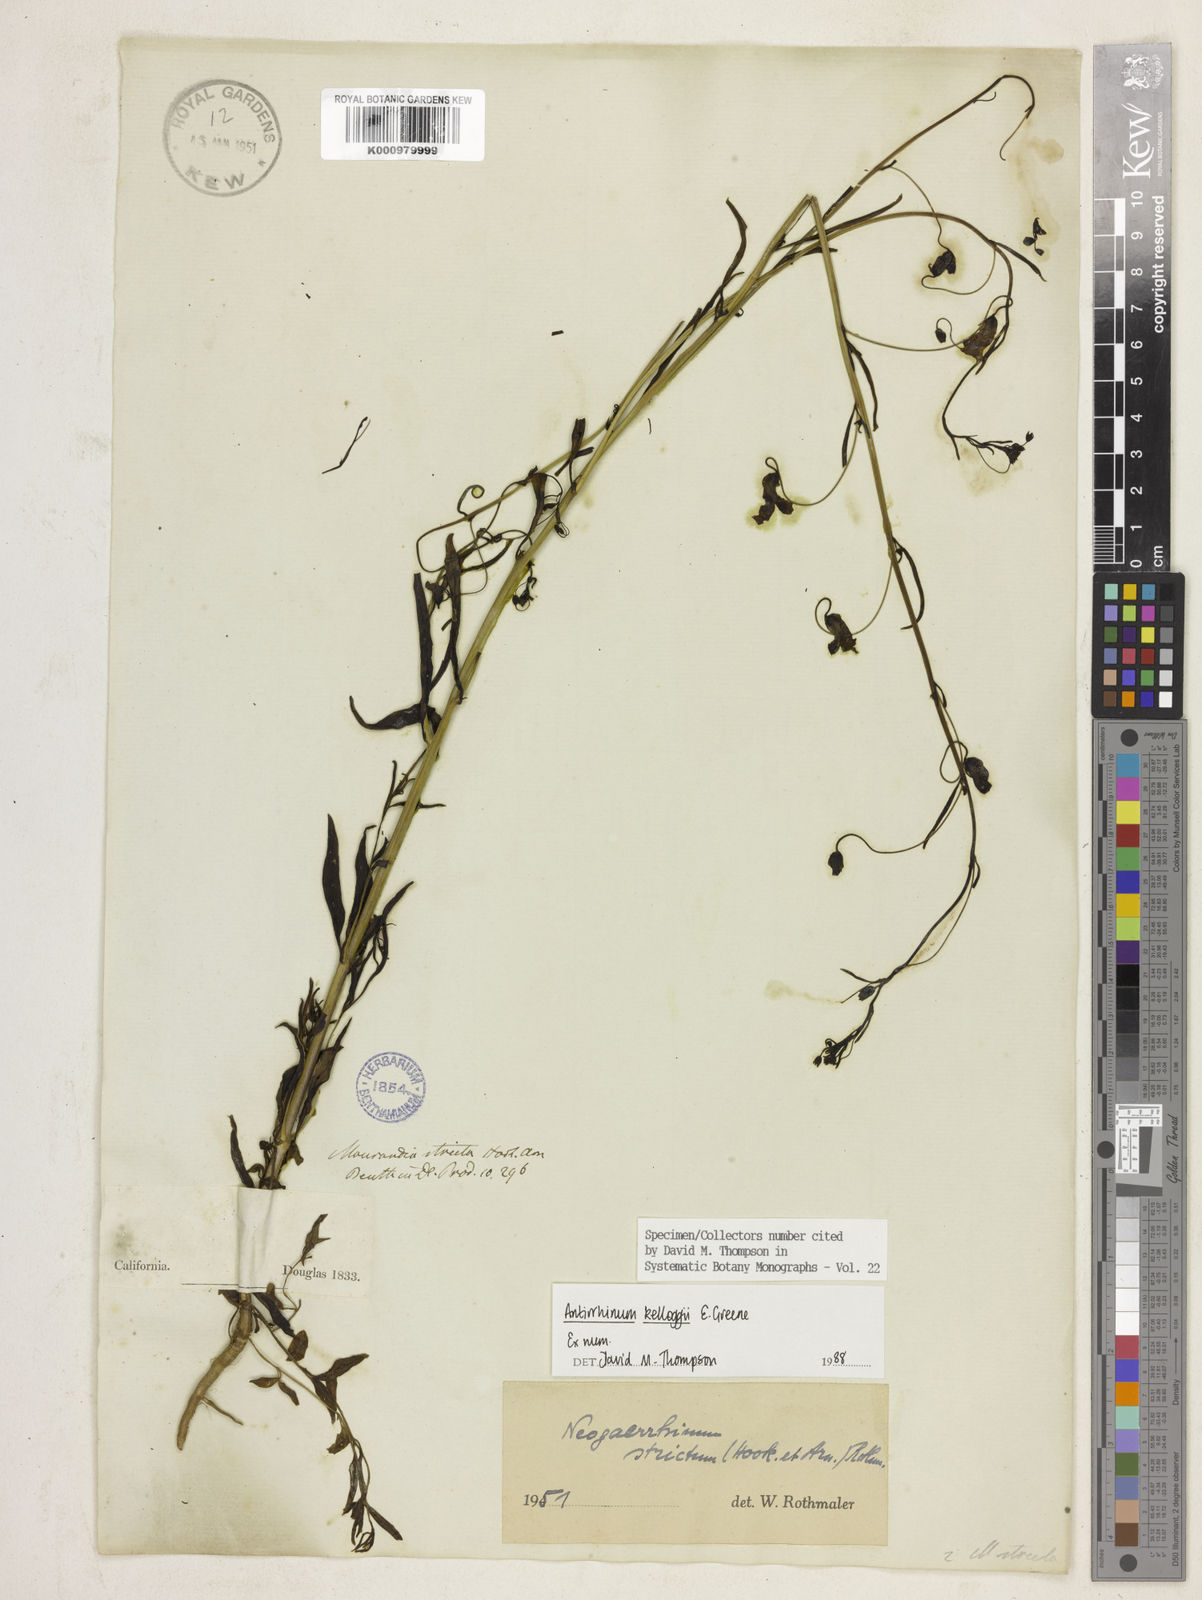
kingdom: Plantae
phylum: Tracheophyta
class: Magnoliopsida
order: Lamiales
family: Plantaginaceae
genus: Linaria
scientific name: Linaria peloponnesiaca
